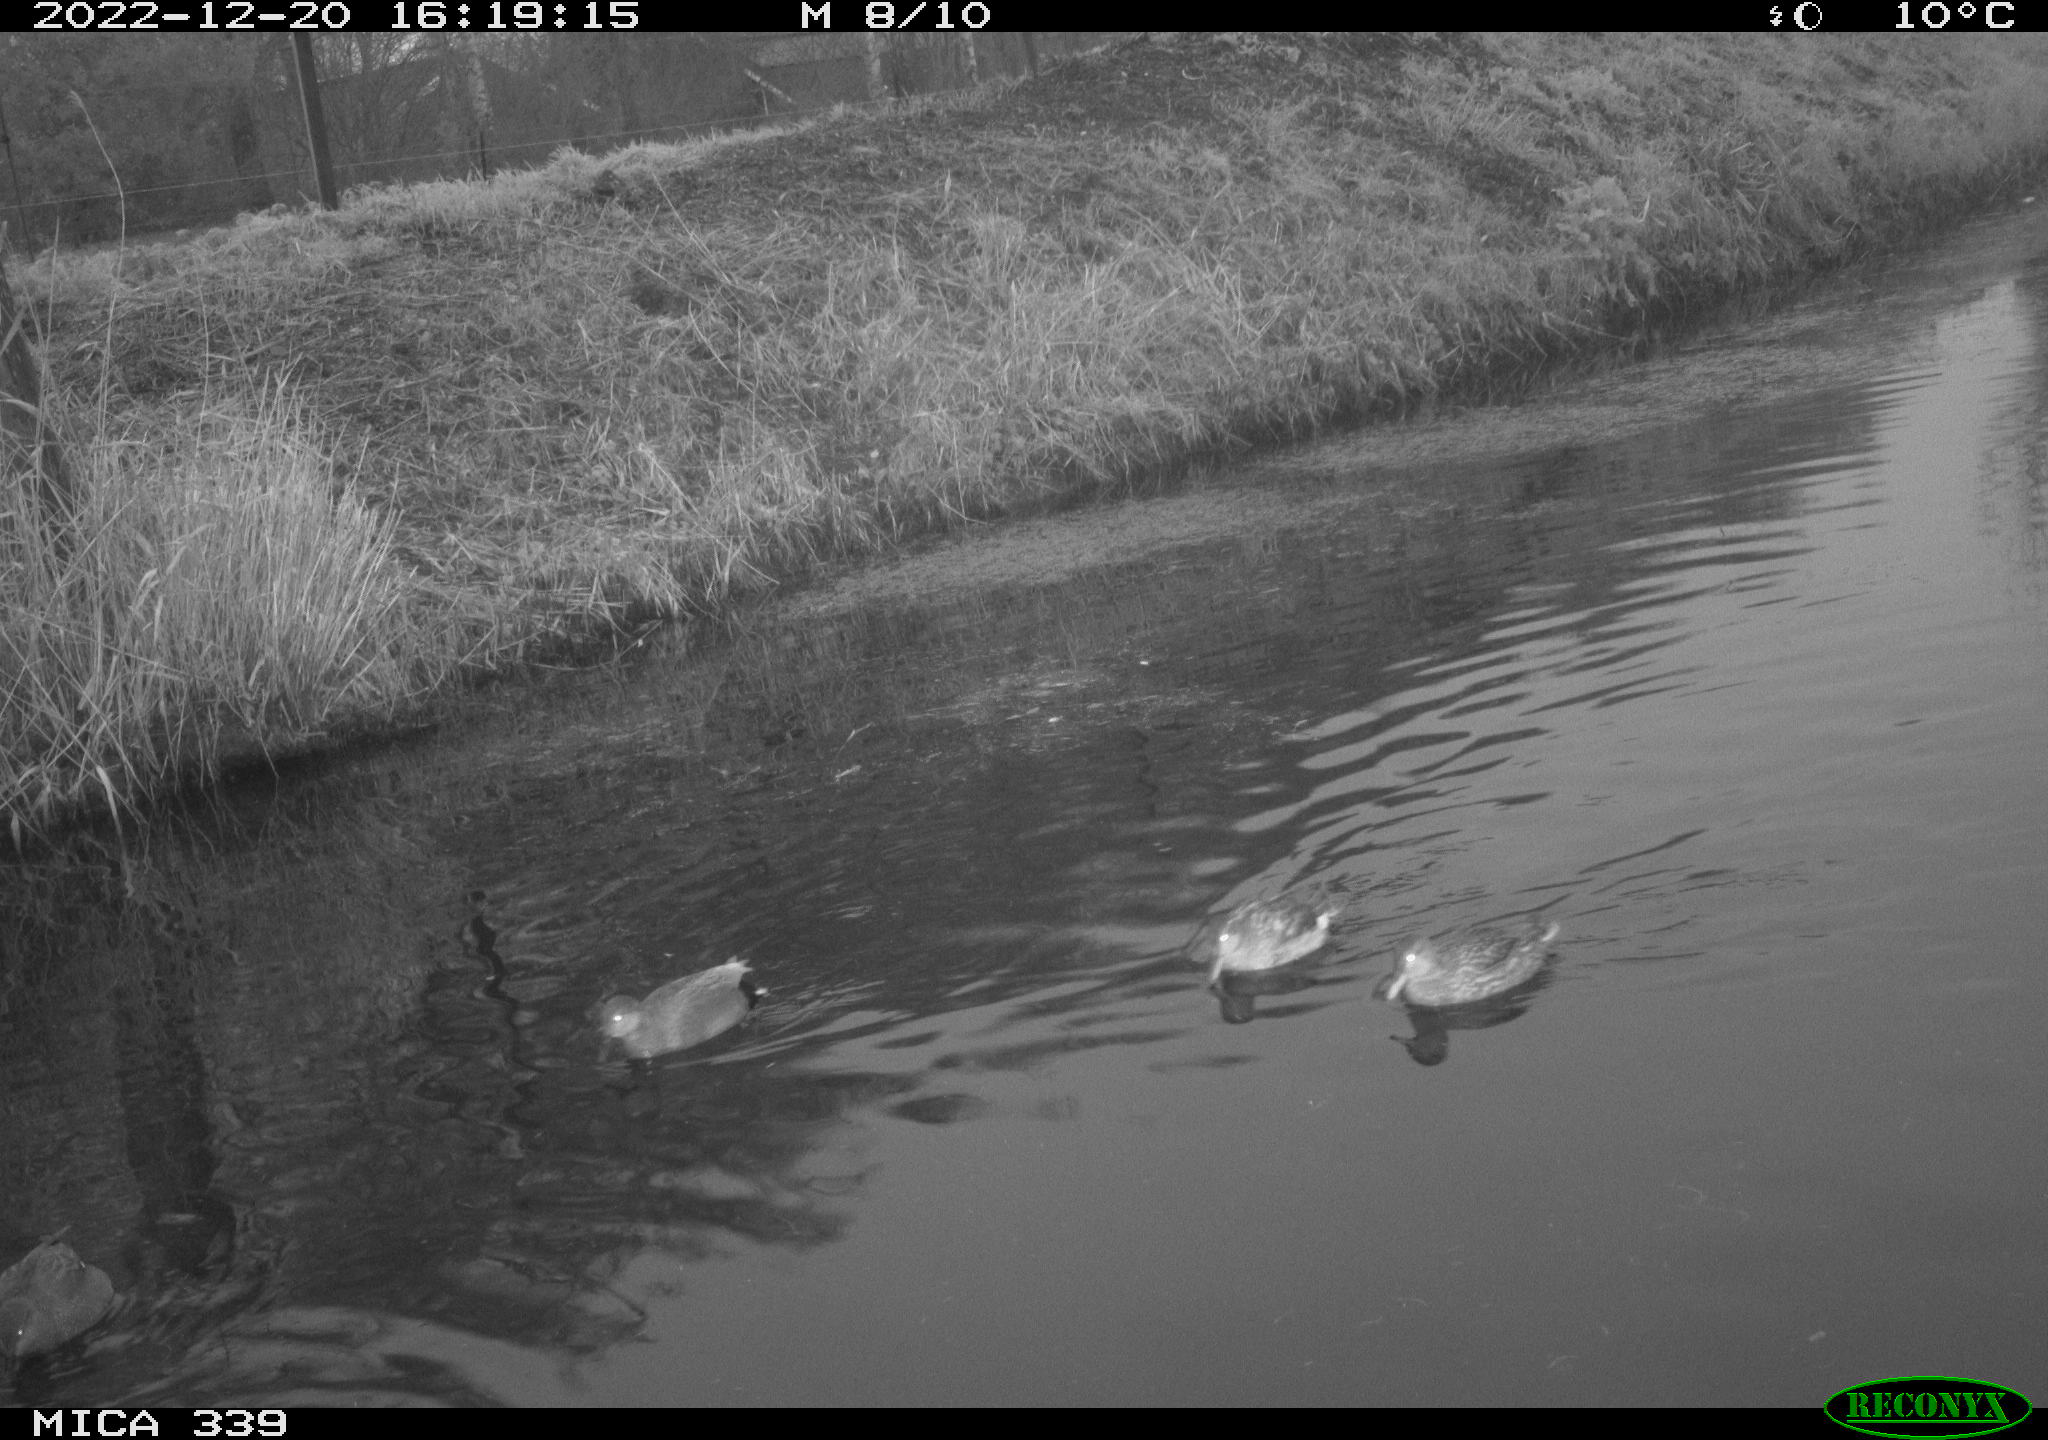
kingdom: Animalia
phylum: Chordata
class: Aves
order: Anseriformes
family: Anatidae
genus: Anas
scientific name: Anas
